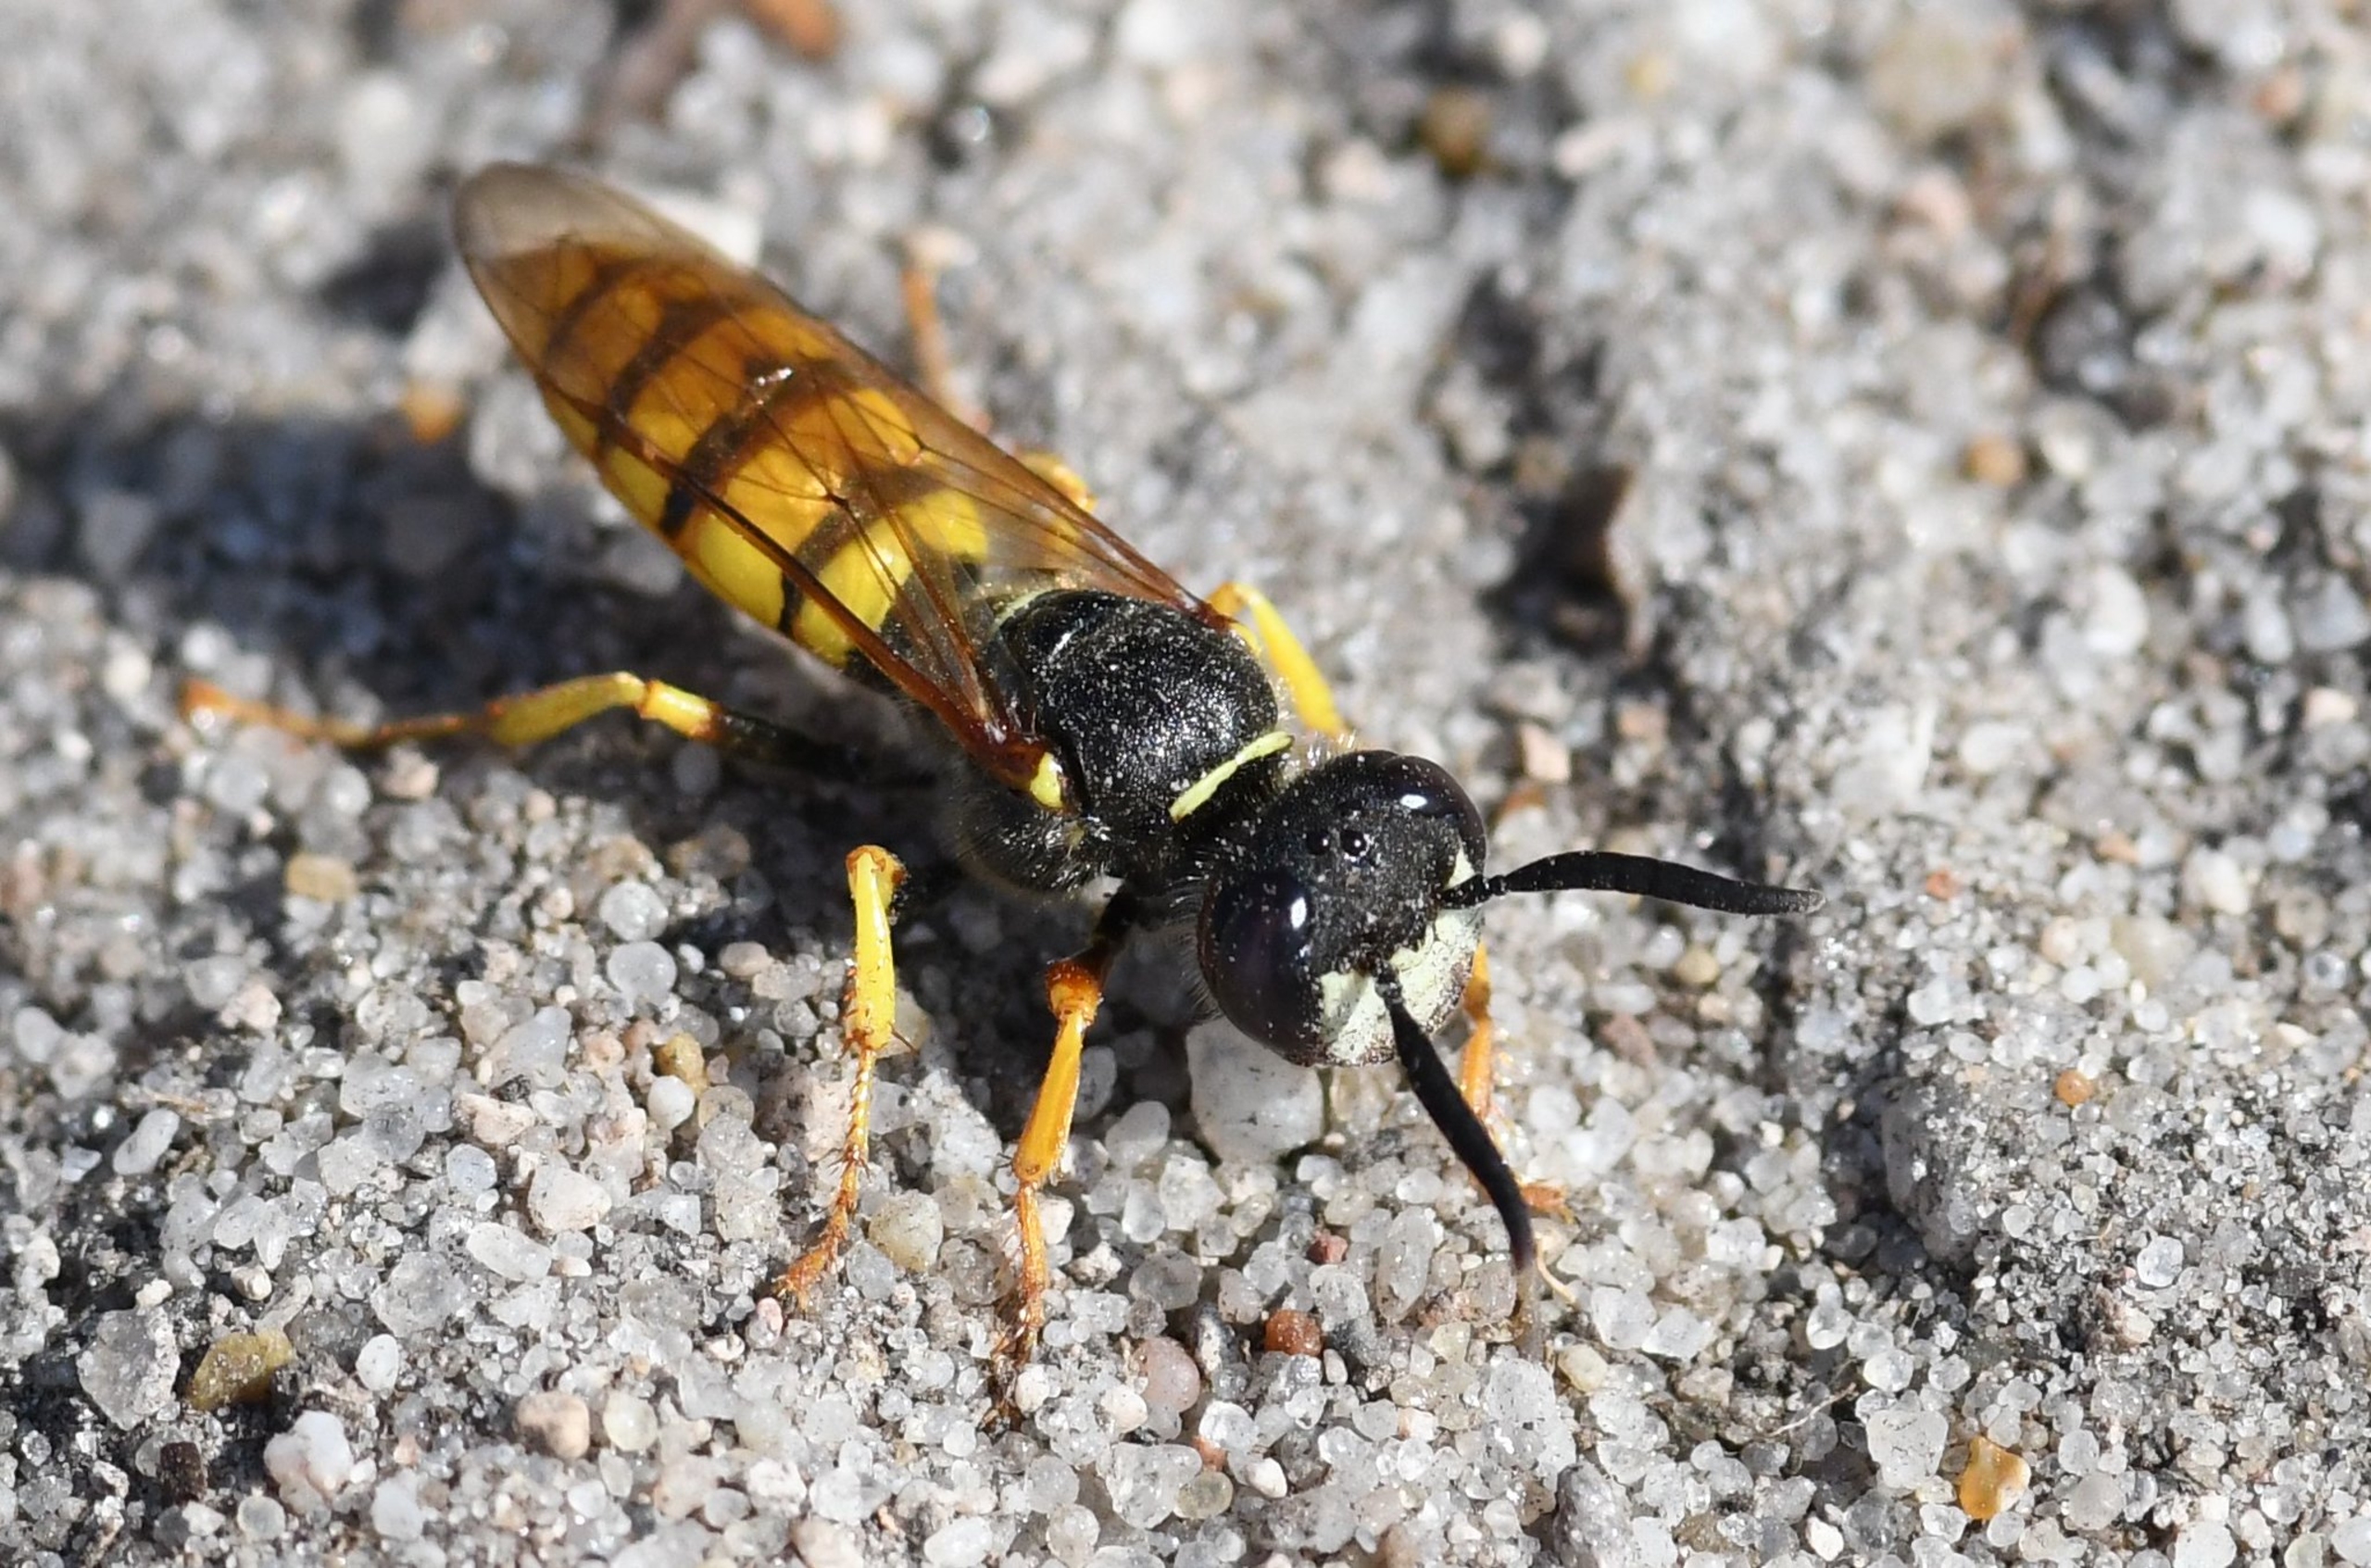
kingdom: Animalia
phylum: Arthropoda
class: Insecta
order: Hymenoptera
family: Crabronidae
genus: Philanthus
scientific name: Philanthus triangulum
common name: Biulv
